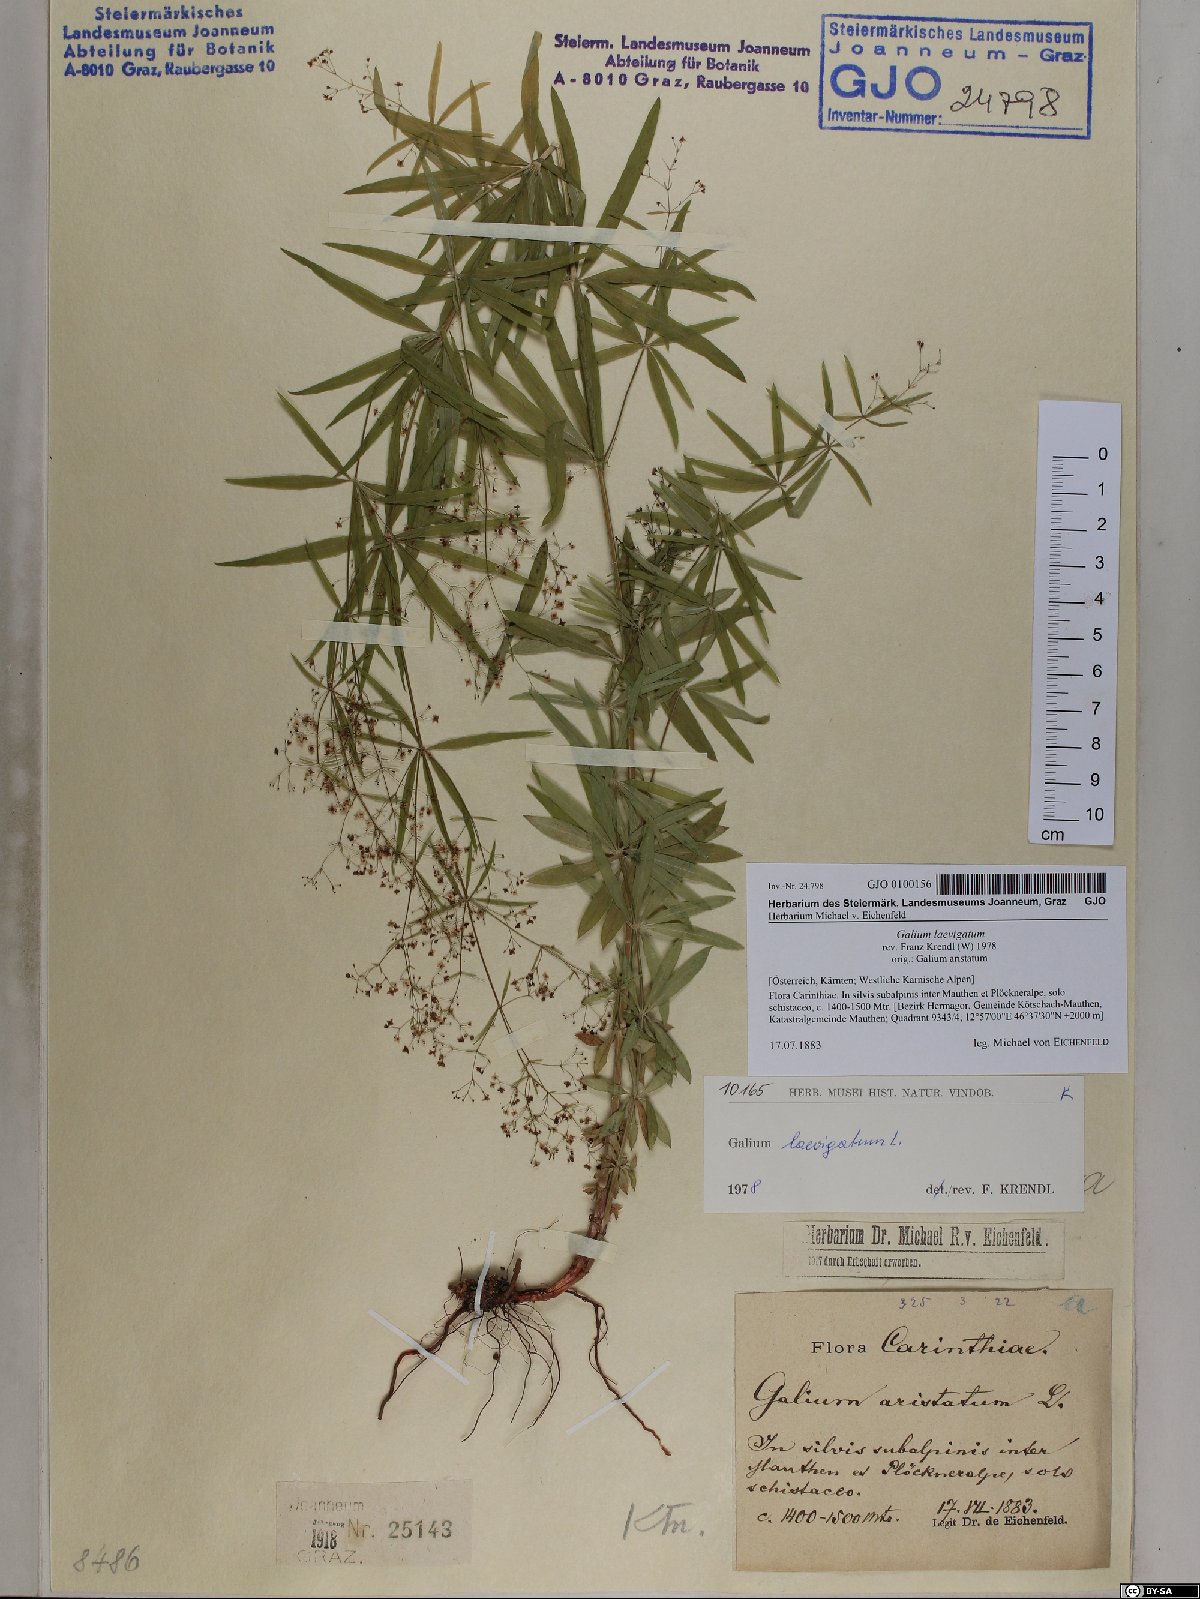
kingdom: Plantae
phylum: Tracheophyta
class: Magnoliopsida
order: Gentianales
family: Rubiaceae
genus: Galium
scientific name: Galium laevigatum
